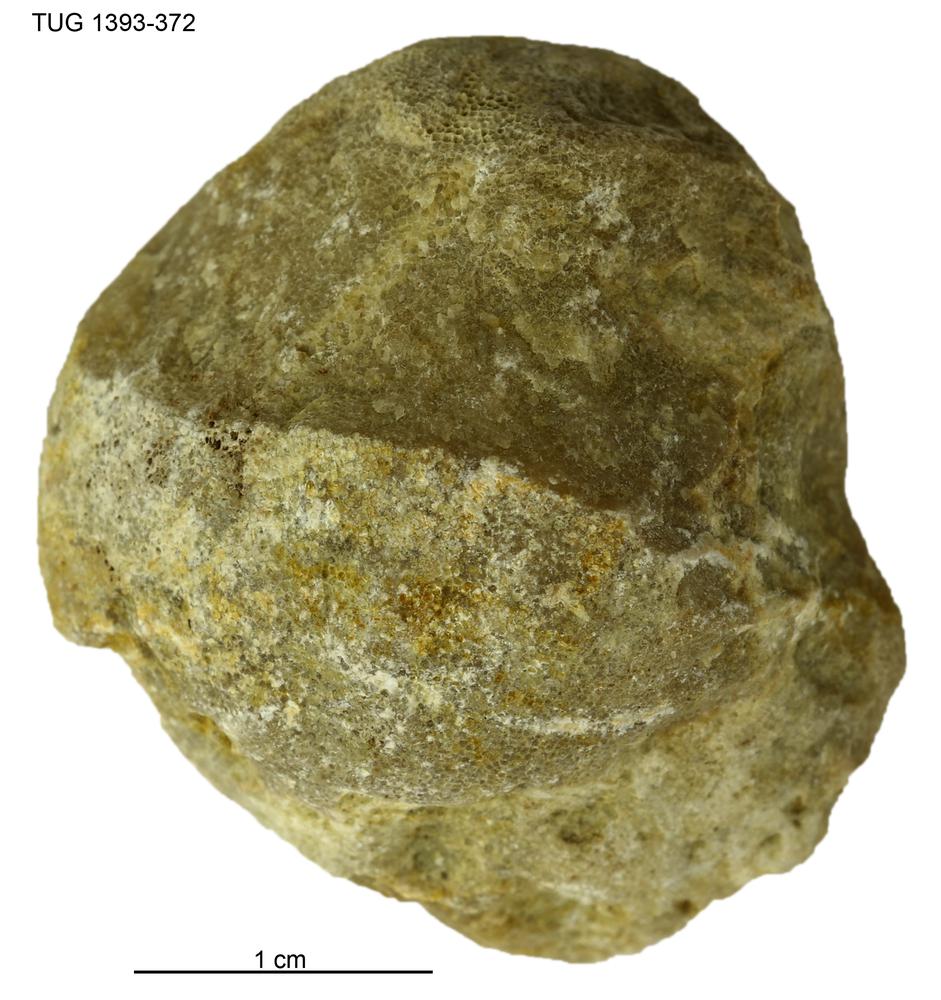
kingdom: Animalia
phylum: Bryozoa
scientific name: Bryozoa
